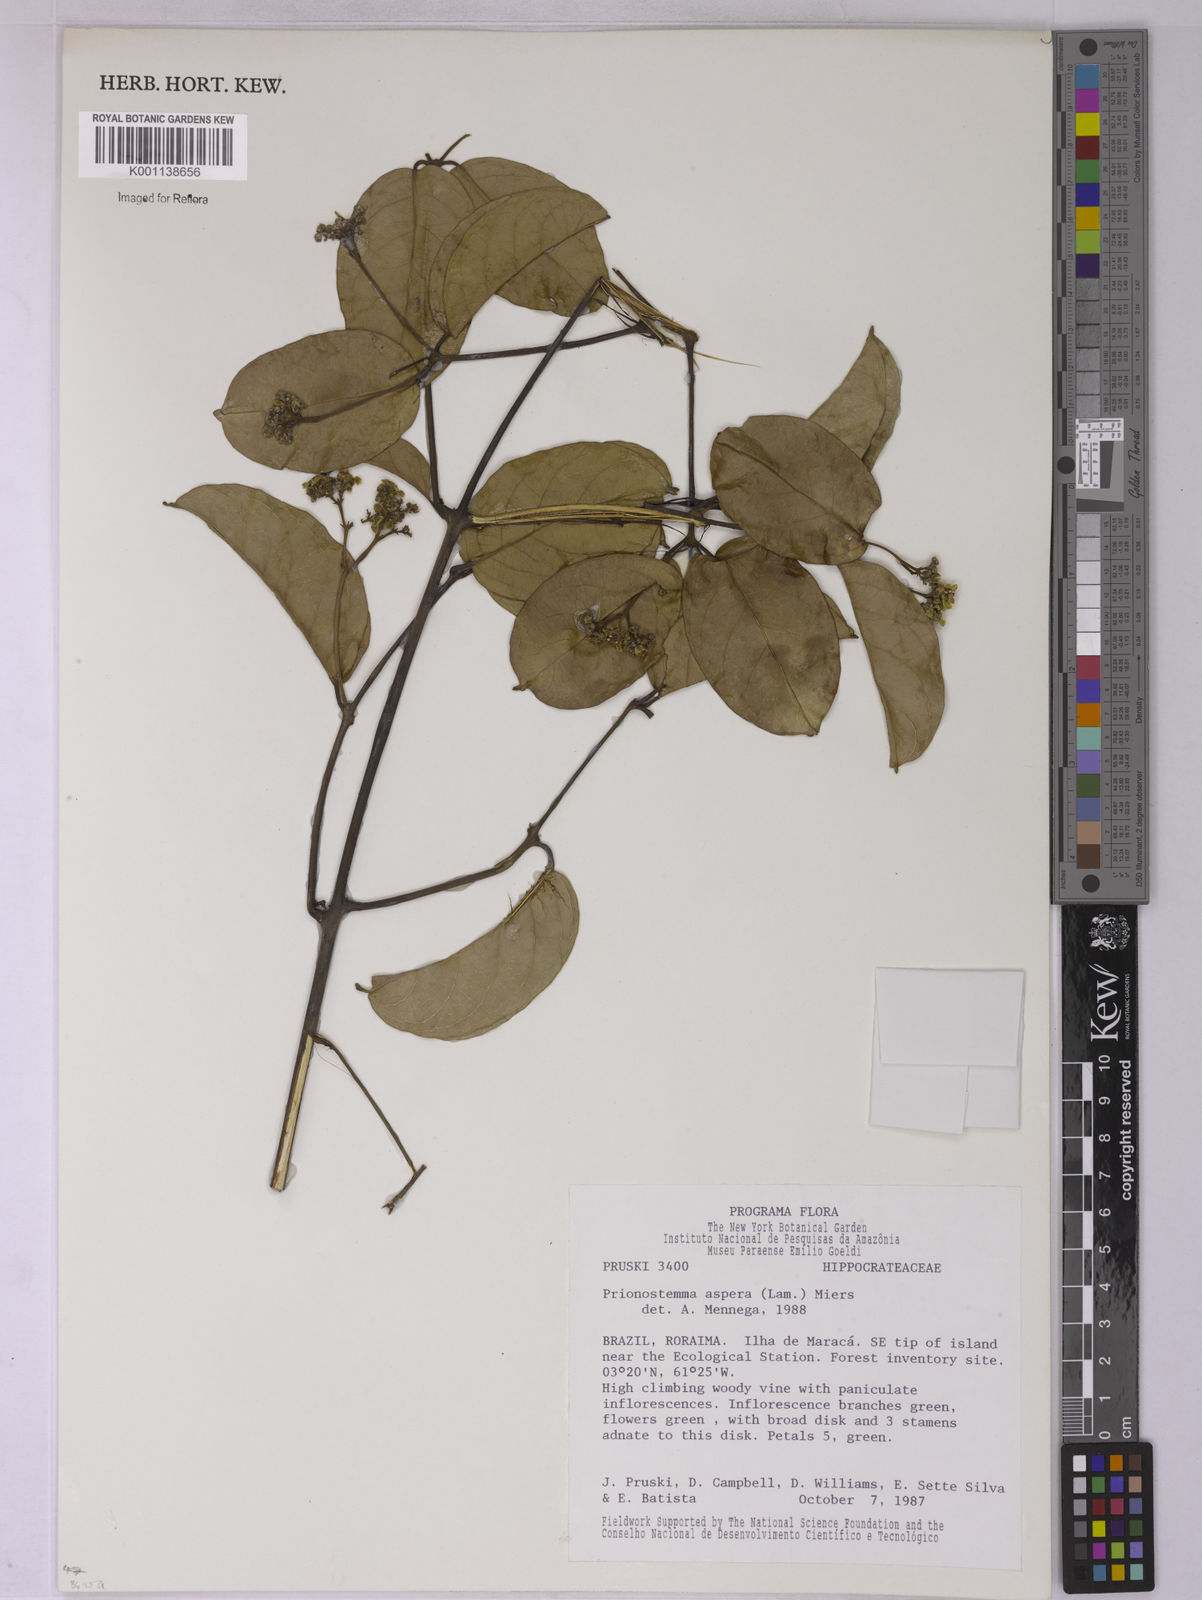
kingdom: Plantae
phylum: Tracheophyta
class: Magnoliopsida
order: Celastrales
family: Celastraceae
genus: Prionostemma
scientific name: Prionostemma aspera
